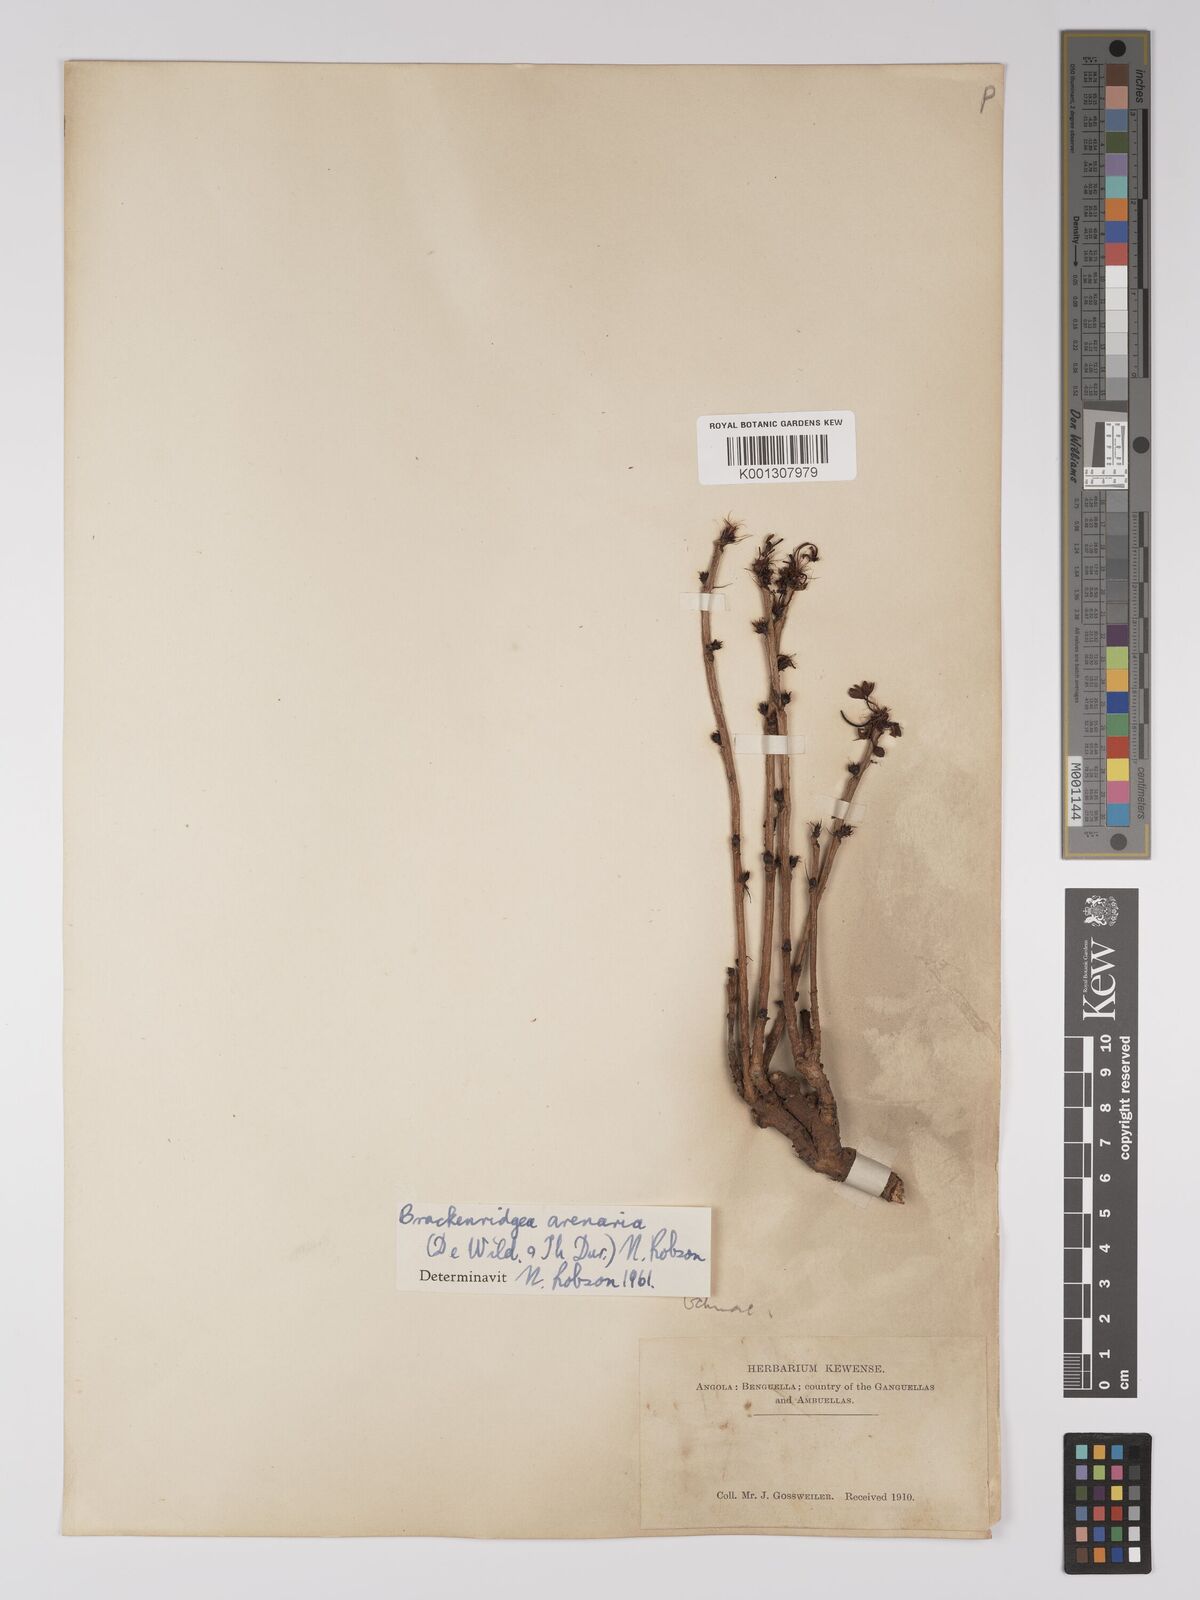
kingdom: Plantae
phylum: Tracheophyta
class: Magnoliopsida
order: Malpighiales
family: Ochnaceae
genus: Brackenridgea
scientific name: Brackenridgea
